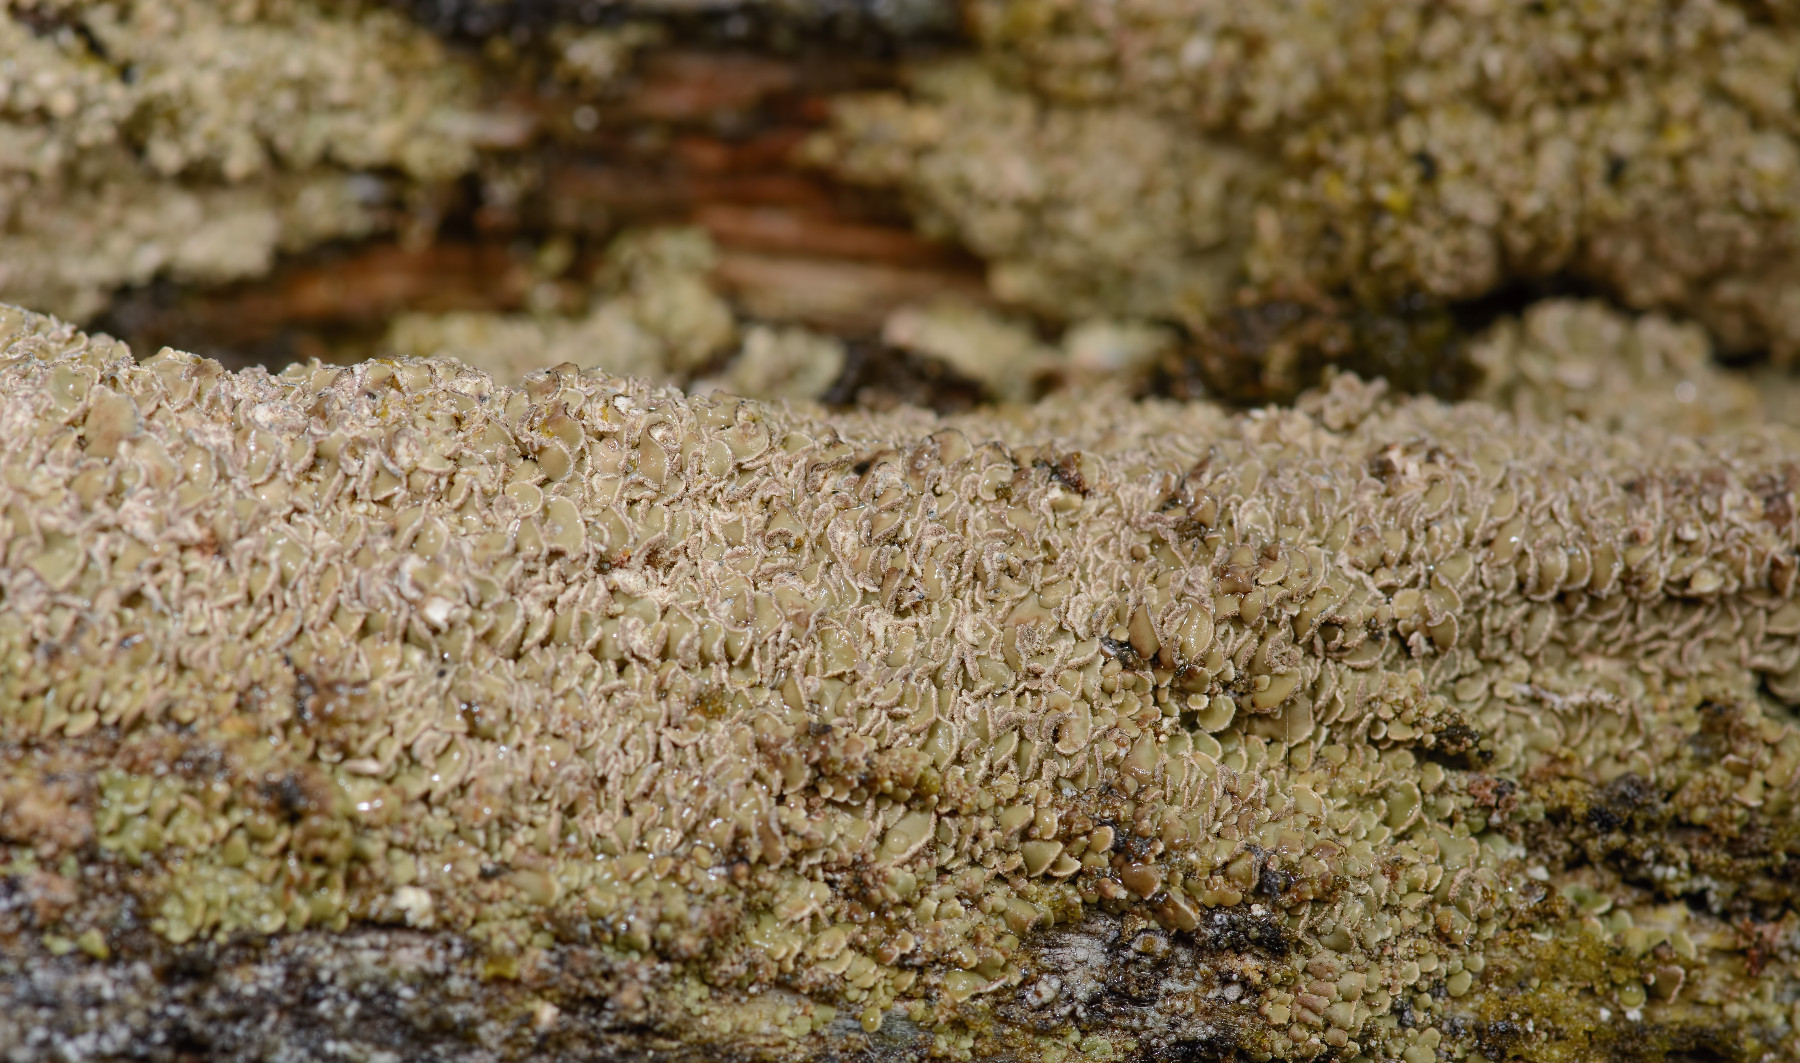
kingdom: Fungi
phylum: Ascomycota
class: Lecanoromycetes
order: Umbilicariales
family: Ophioparmaceae
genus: Hypocenomyce
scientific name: Hypocenomyce scalaris
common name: småskællet muslinglav
